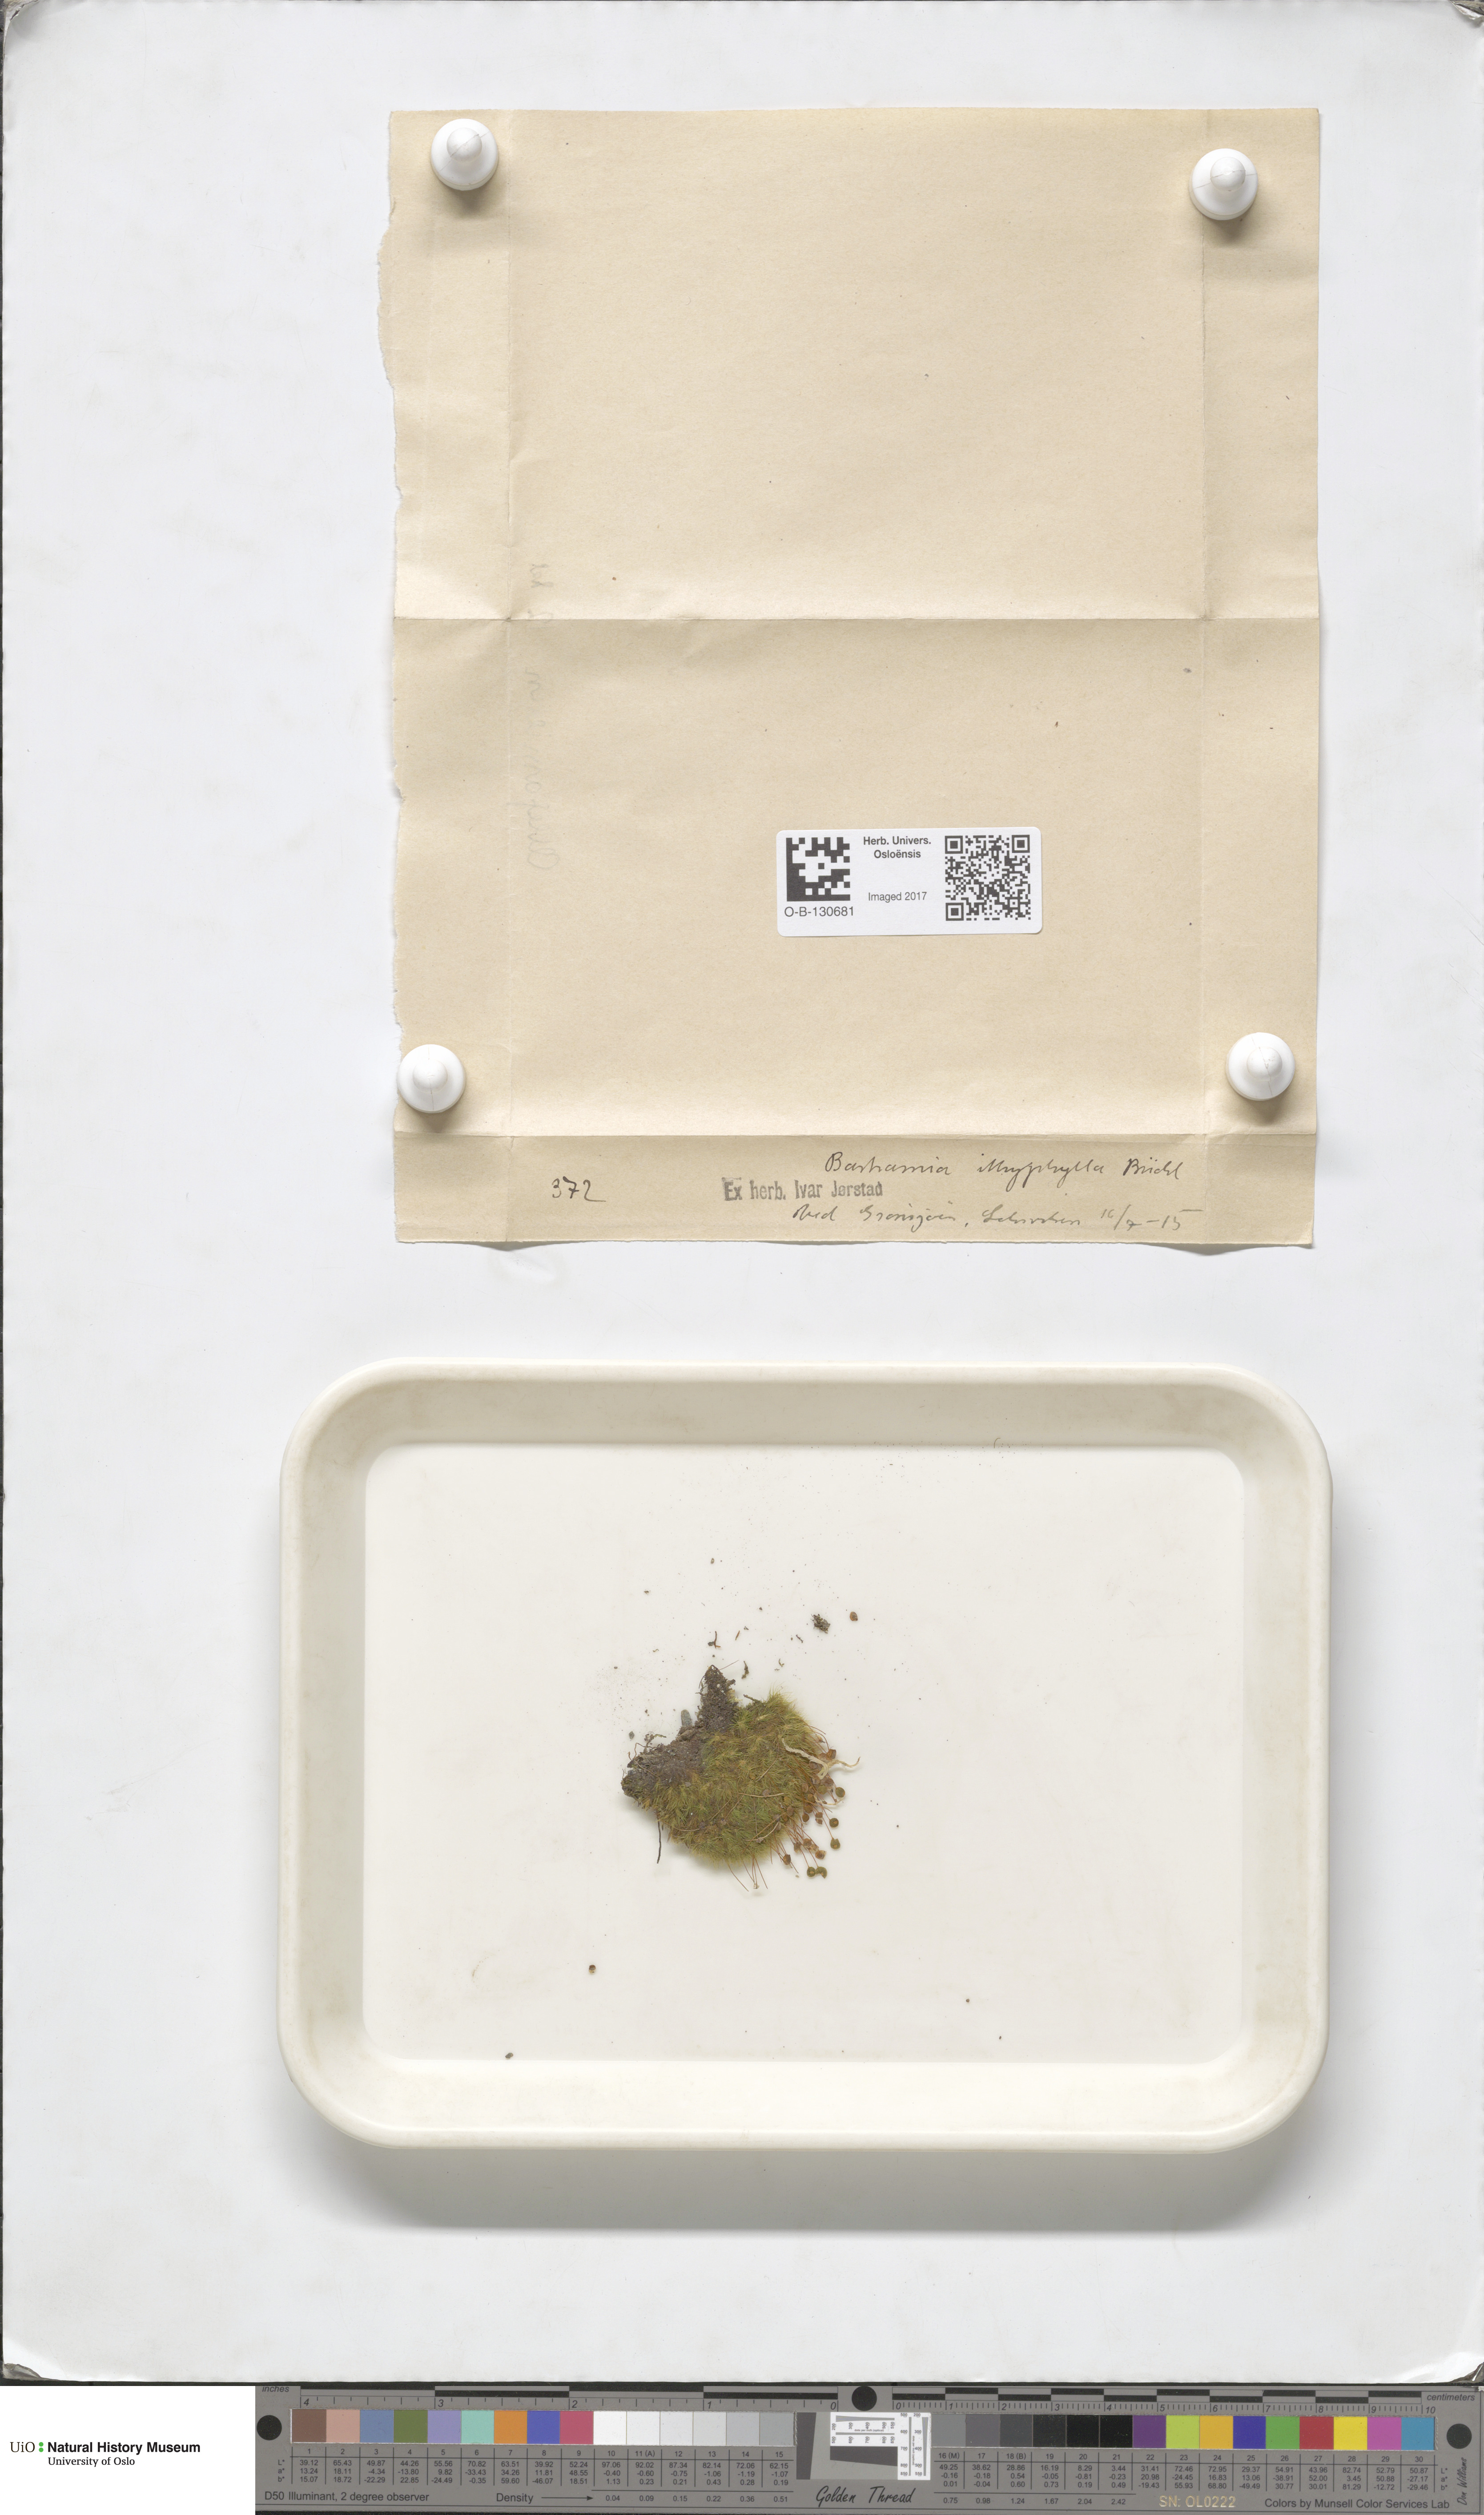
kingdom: Plantae
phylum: Bryophyta
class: Bryopsida
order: Bartramiales
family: Bartramiaceae
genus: Bartramia
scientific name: Bartramia ithyphylla
